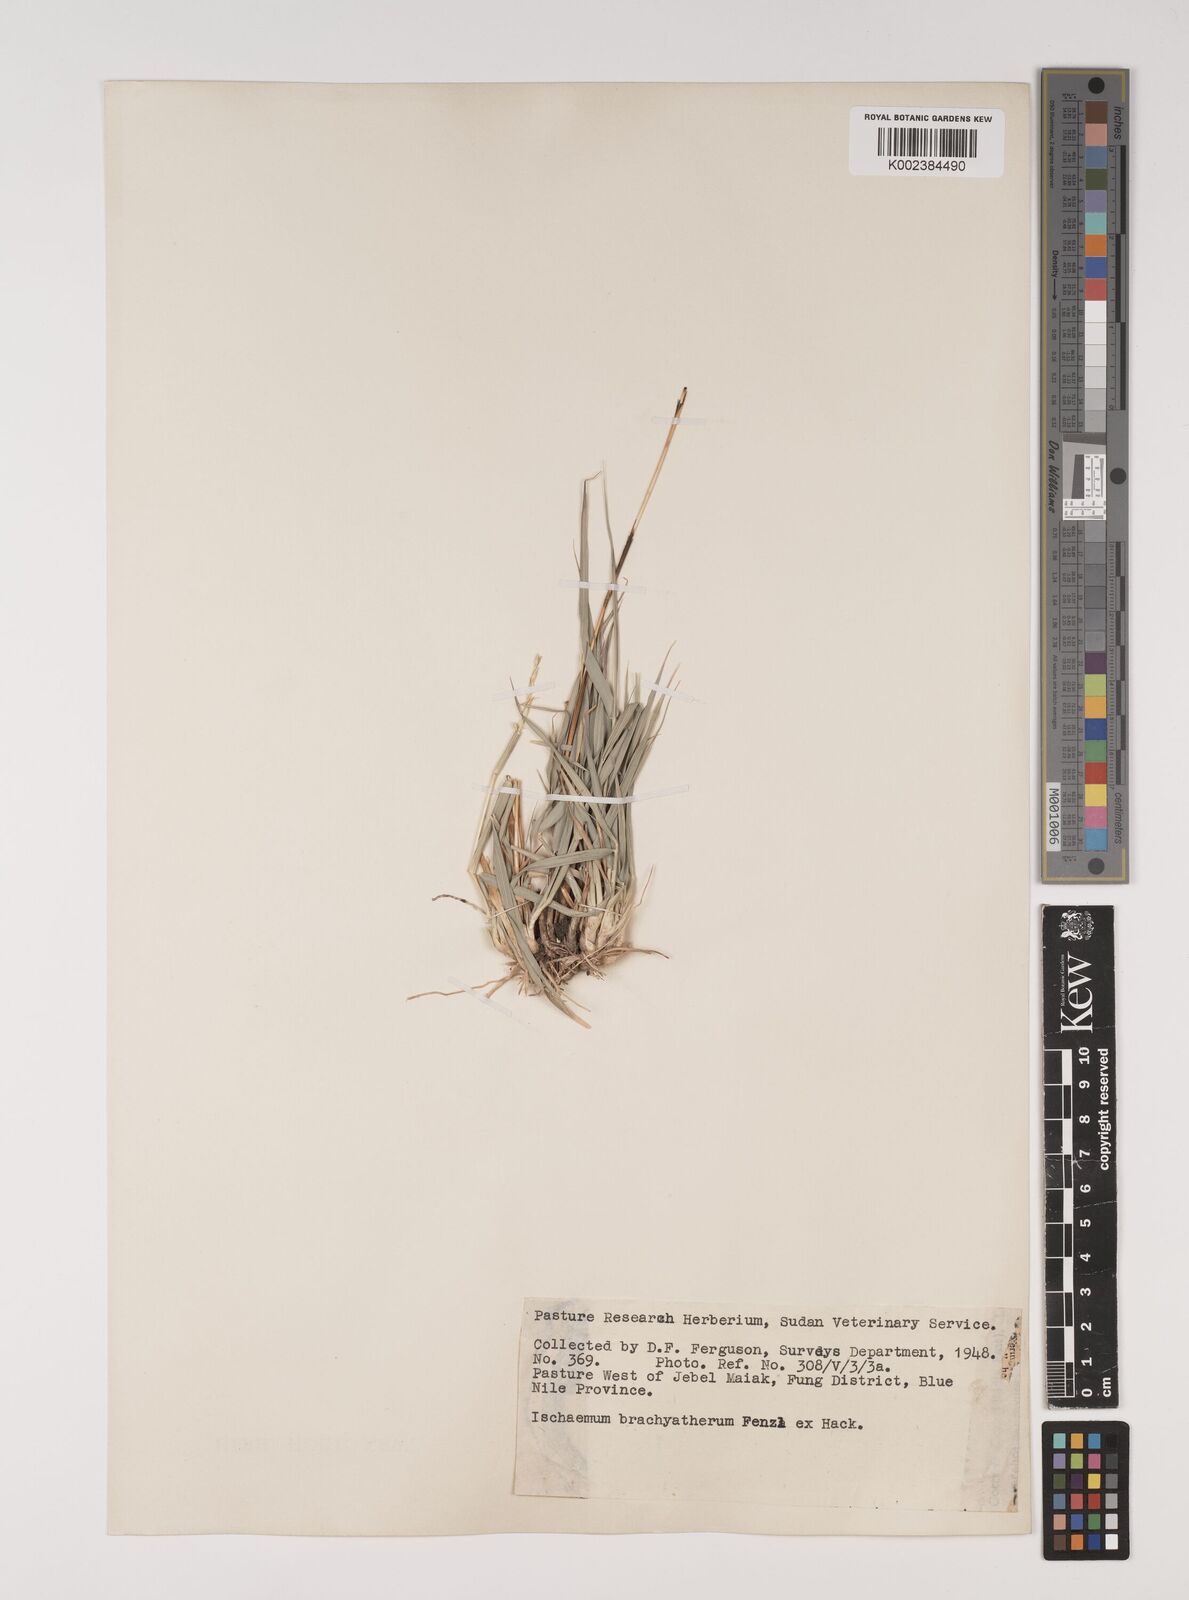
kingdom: Plantae
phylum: Tracheophyta
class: Liliopsida
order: Poales
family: Poaceae
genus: Ischaemum
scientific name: Ischaemum afrum
